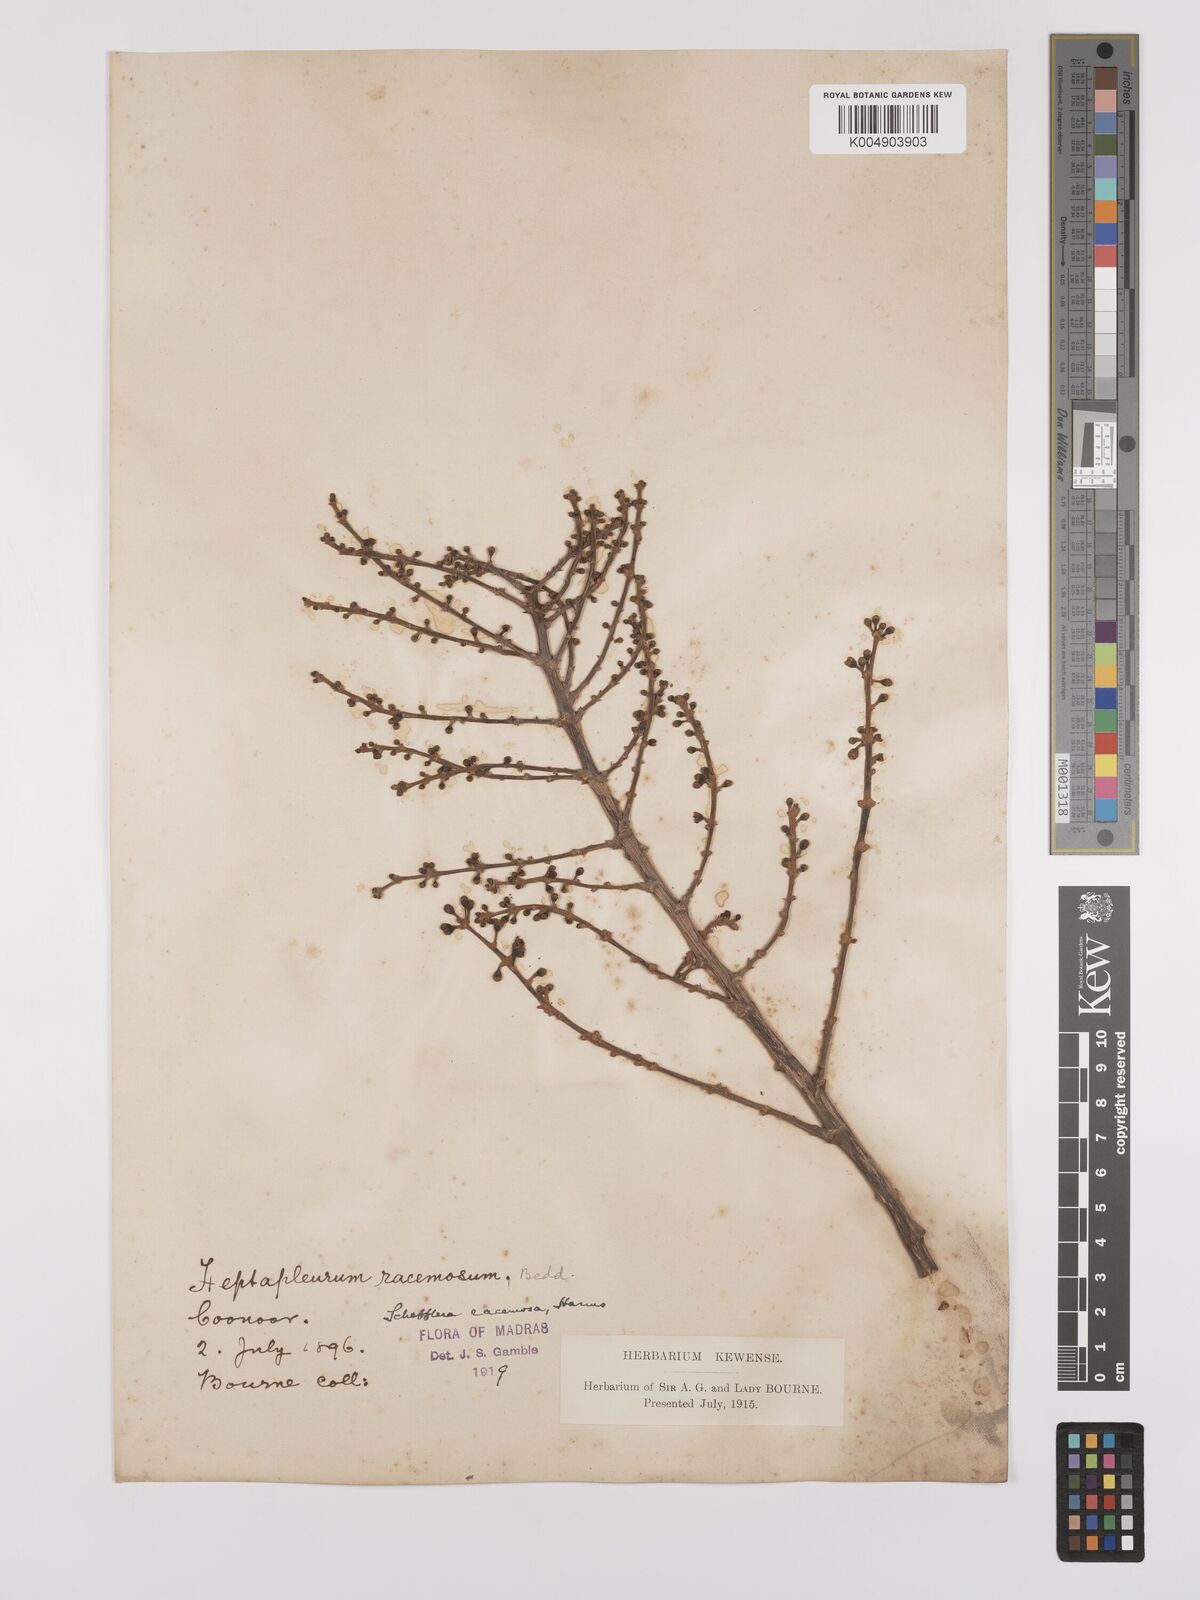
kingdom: Plantae
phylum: Tracheophyta
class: Magnoliopsida
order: Apiales
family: Araliaceae
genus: Heptapleurum
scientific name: Heptapleurum racemosum
